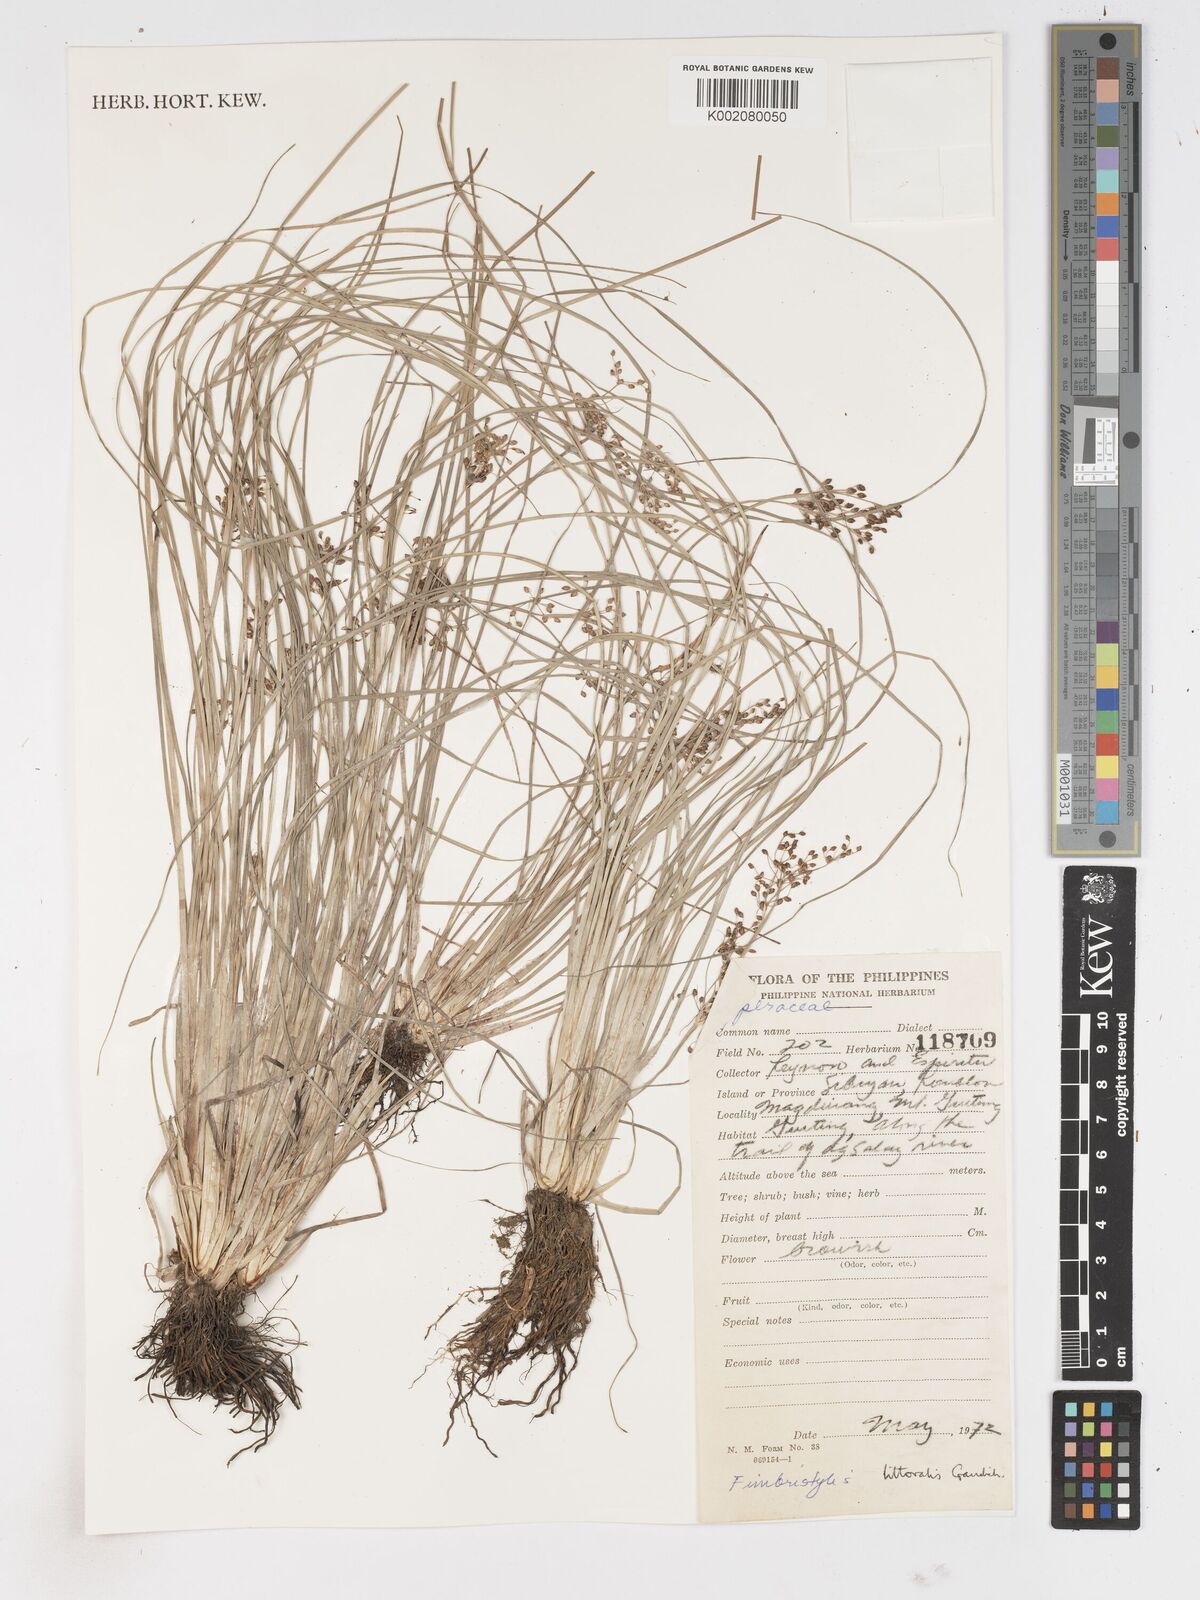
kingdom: Plantae
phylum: Tracheophyta
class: Liliopsida
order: Poales
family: Cyperaceae
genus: Fimbristylis
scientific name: Fimbristylis littoralis
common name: Fimbry
